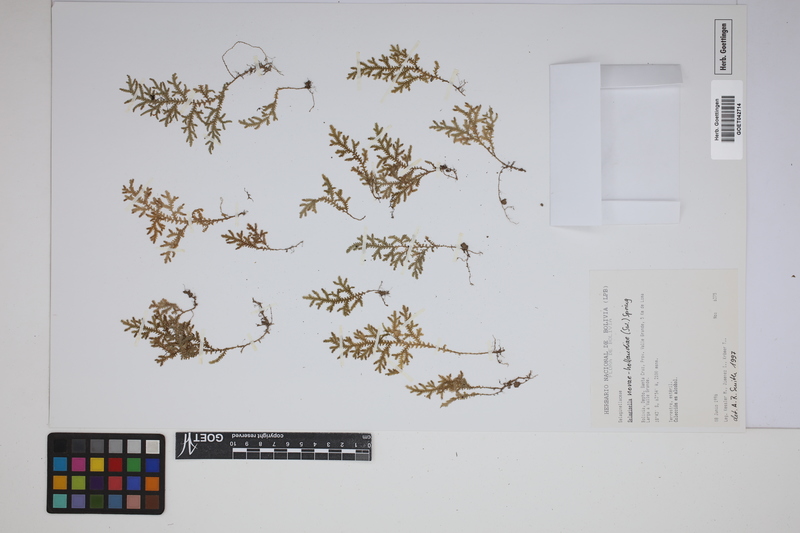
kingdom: Plantae
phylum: Tracheophyta
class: Lycopodiopsida
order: Selaginellales
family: Selaginellaceae
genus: Selaginella
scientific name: Selaginella novae-hollandiae
